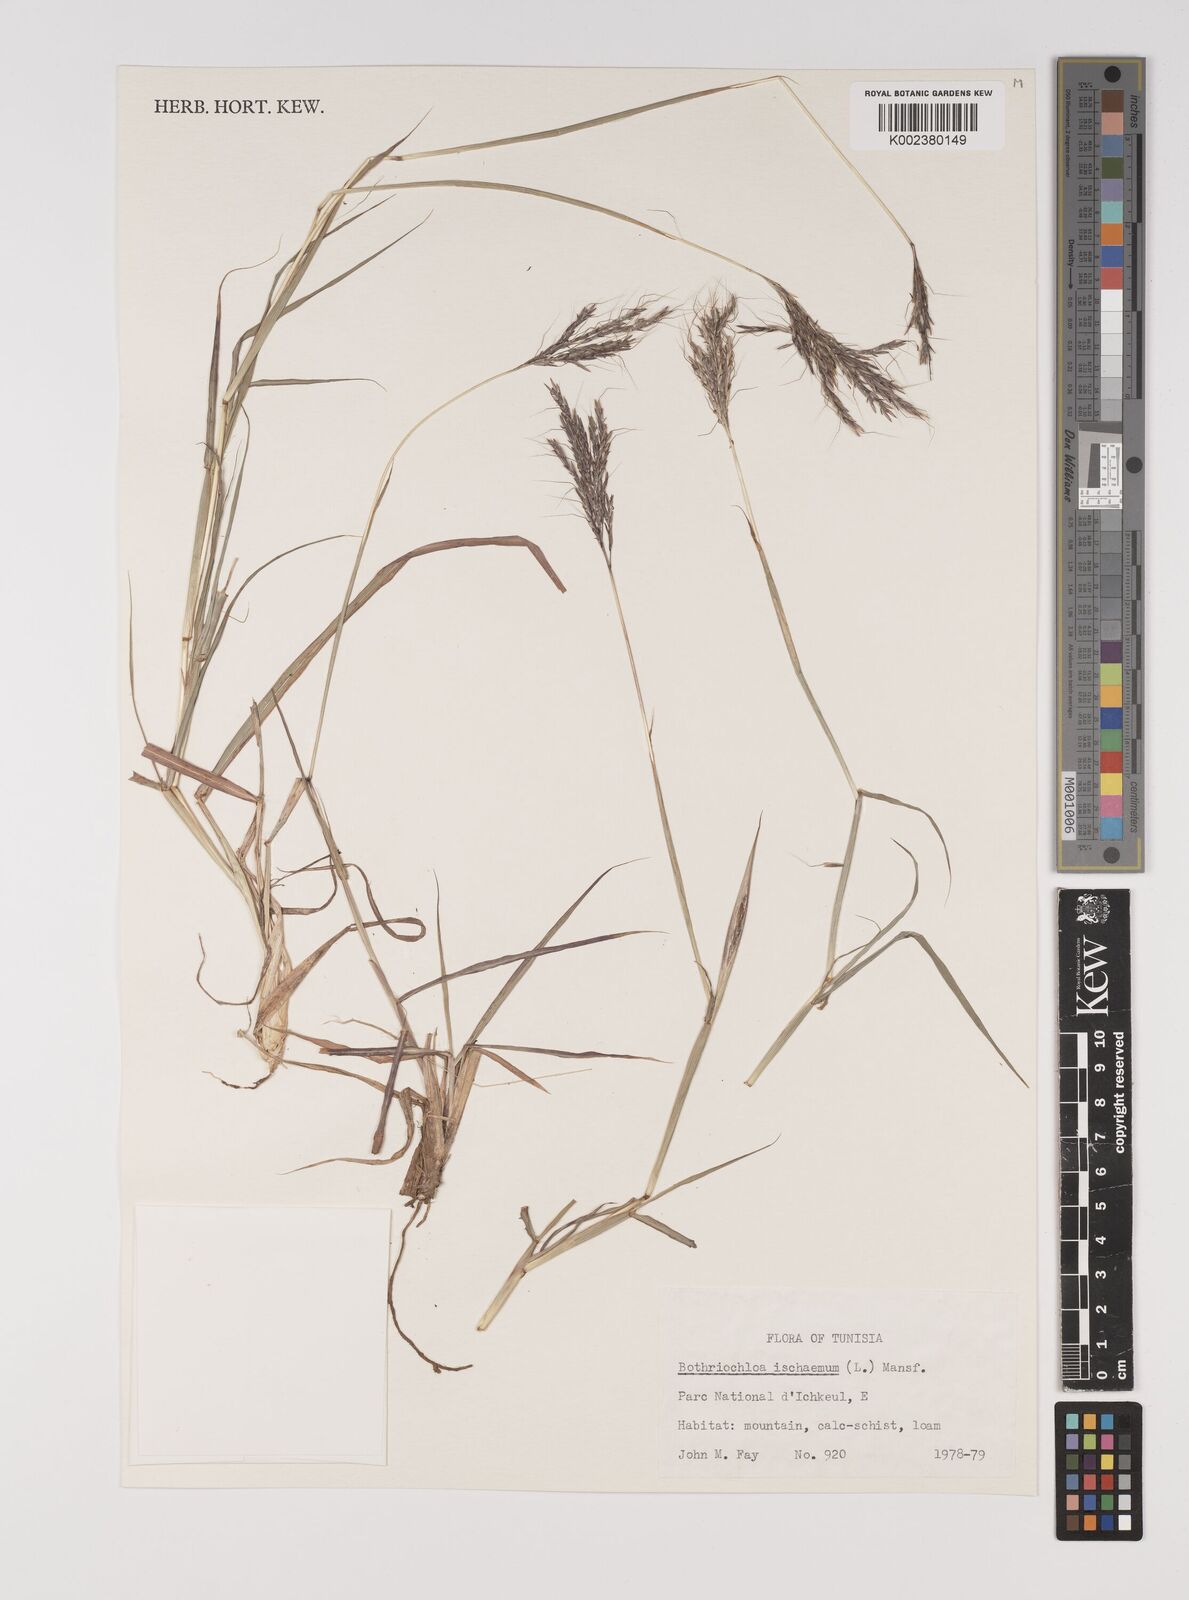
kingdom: Plantae
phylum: Tracheophyta
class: Liliopsida
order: Poales
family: Poaceae
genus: Bothriochloa
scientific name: Bothriochloa ischaemum
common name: Yellow bluestem
